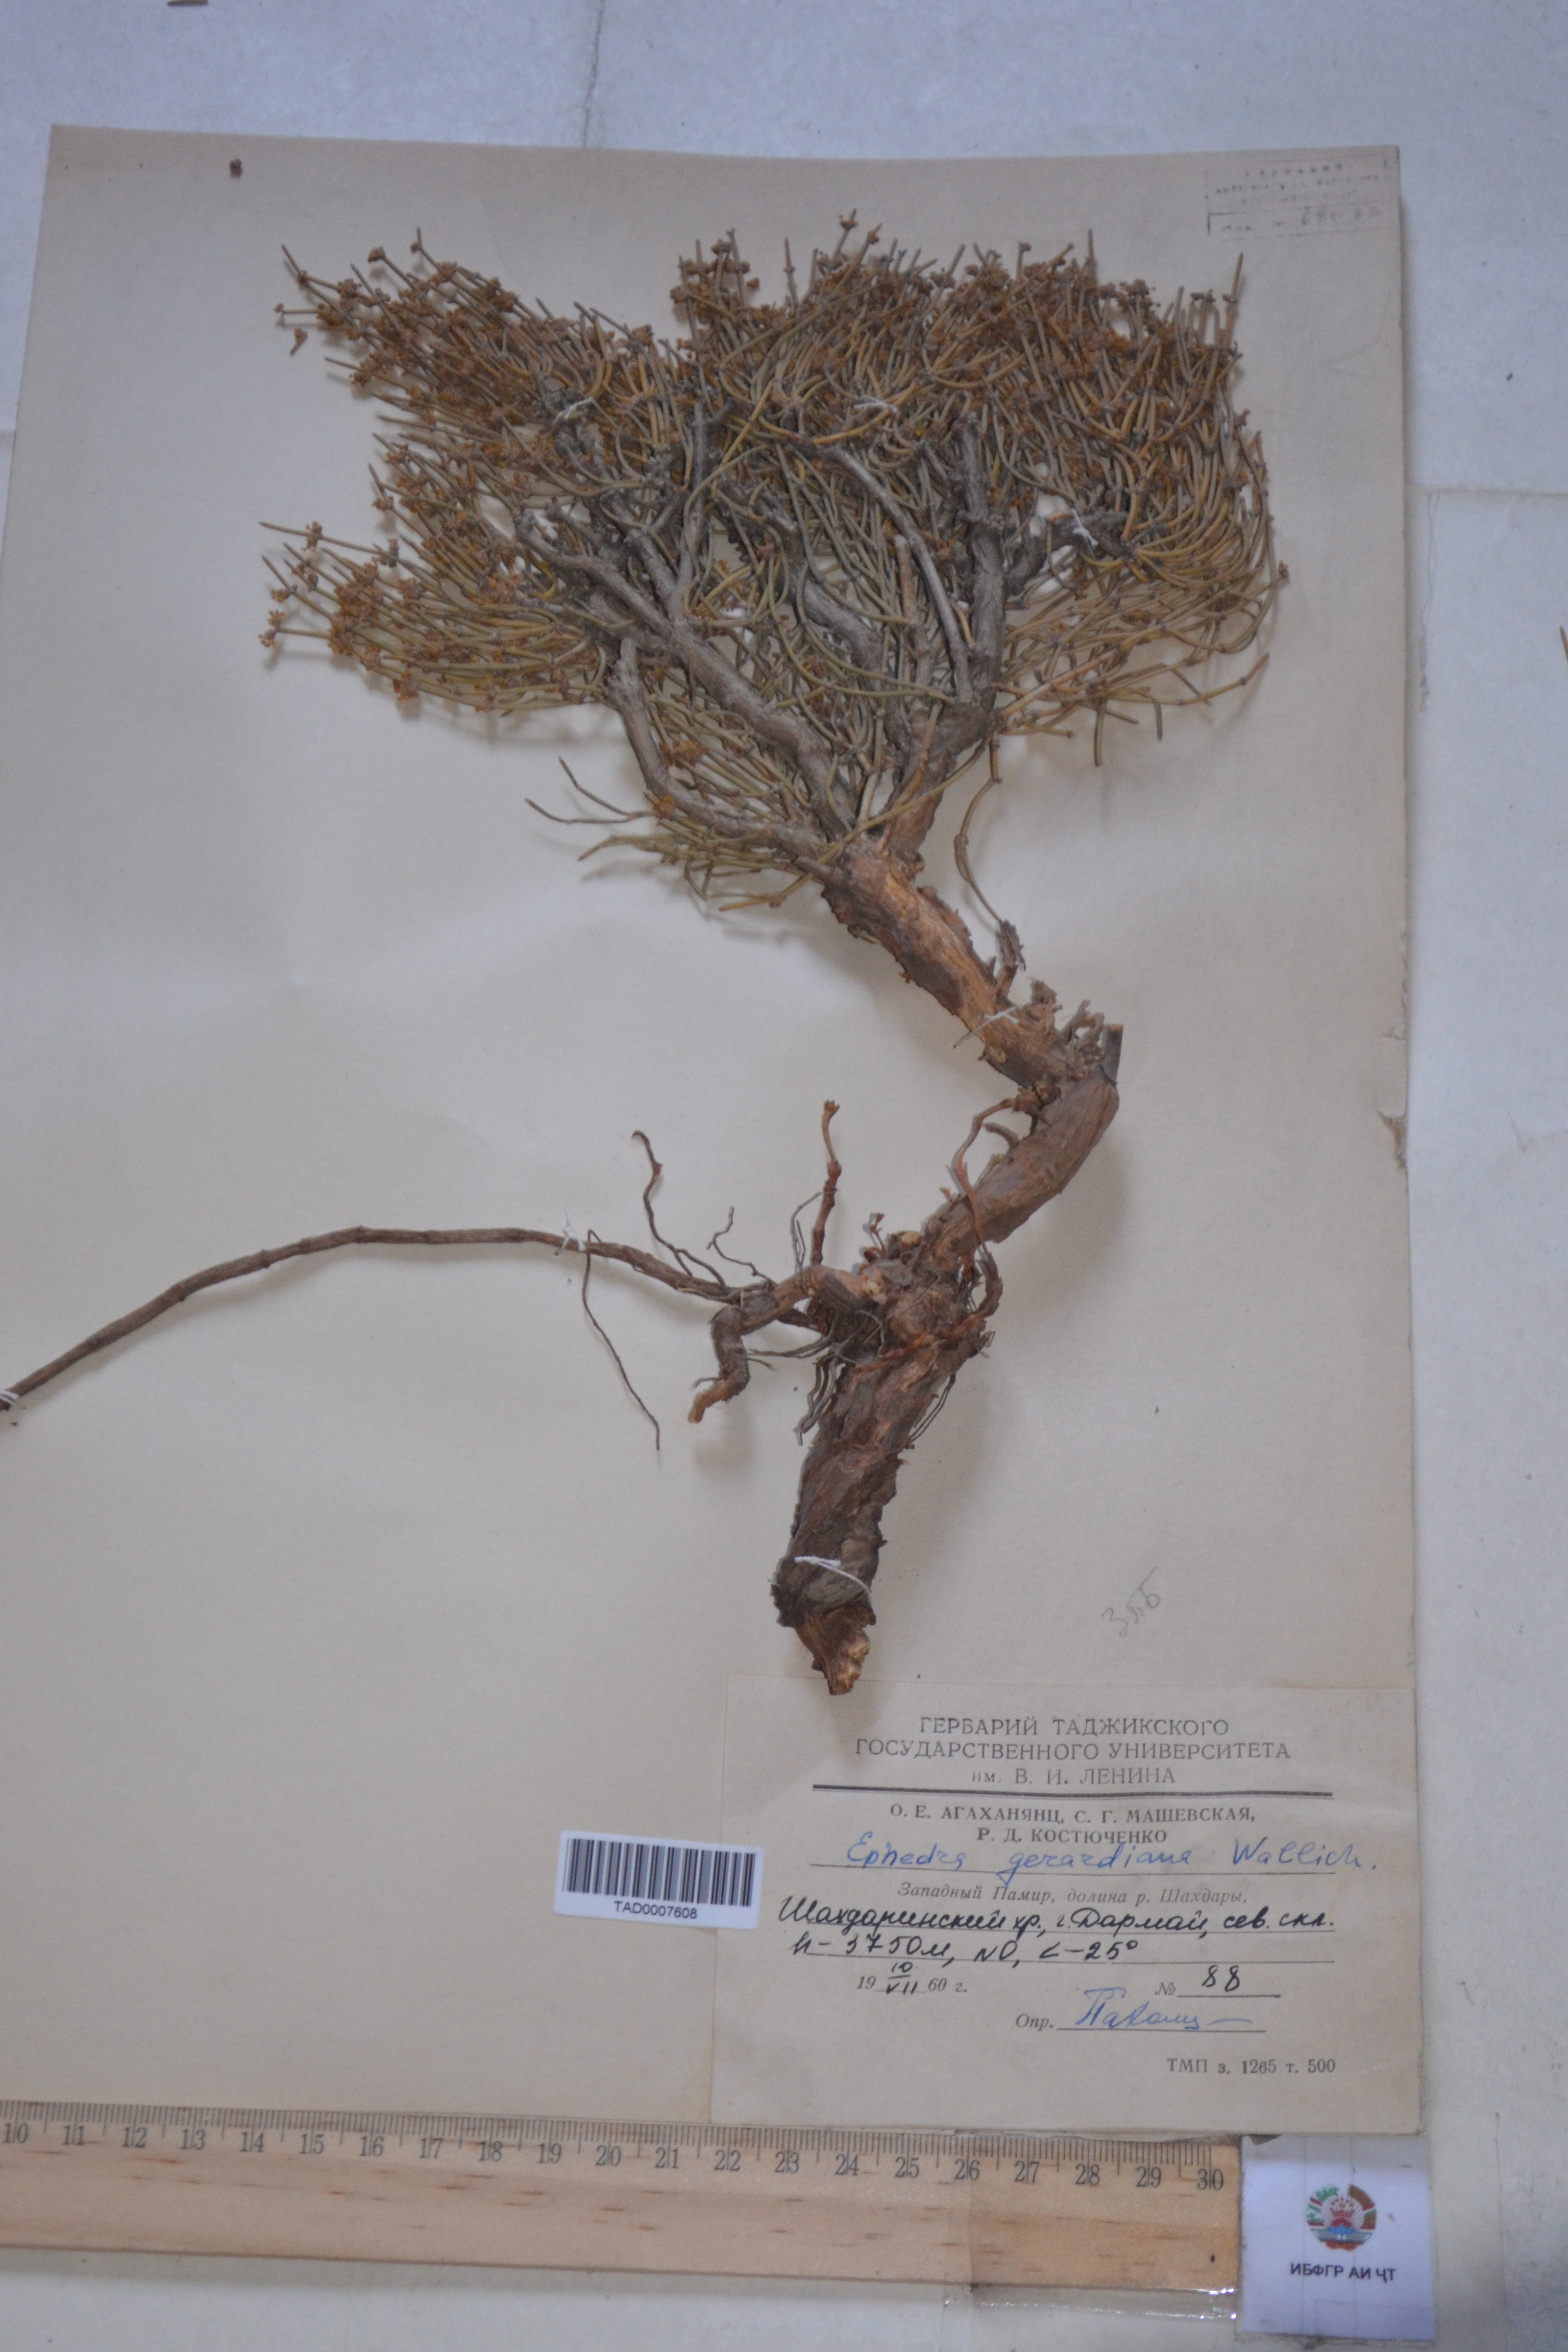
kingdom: Plantae
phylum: Tracheophyta
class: Gnetopsida
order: Ephedrales
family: Ephedraceae
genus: Ephedra
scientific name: Ephedra gerardiana
